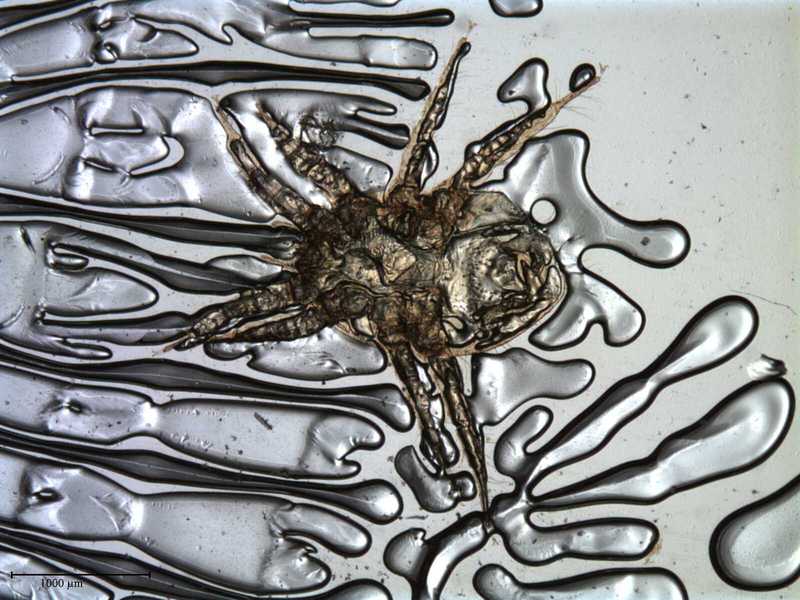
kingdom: Animalia
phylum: Arthropoda
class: Arachnida
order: Mesostigmata
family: Laelapidae
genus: Dinogamasus
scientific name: Dinogamasus
